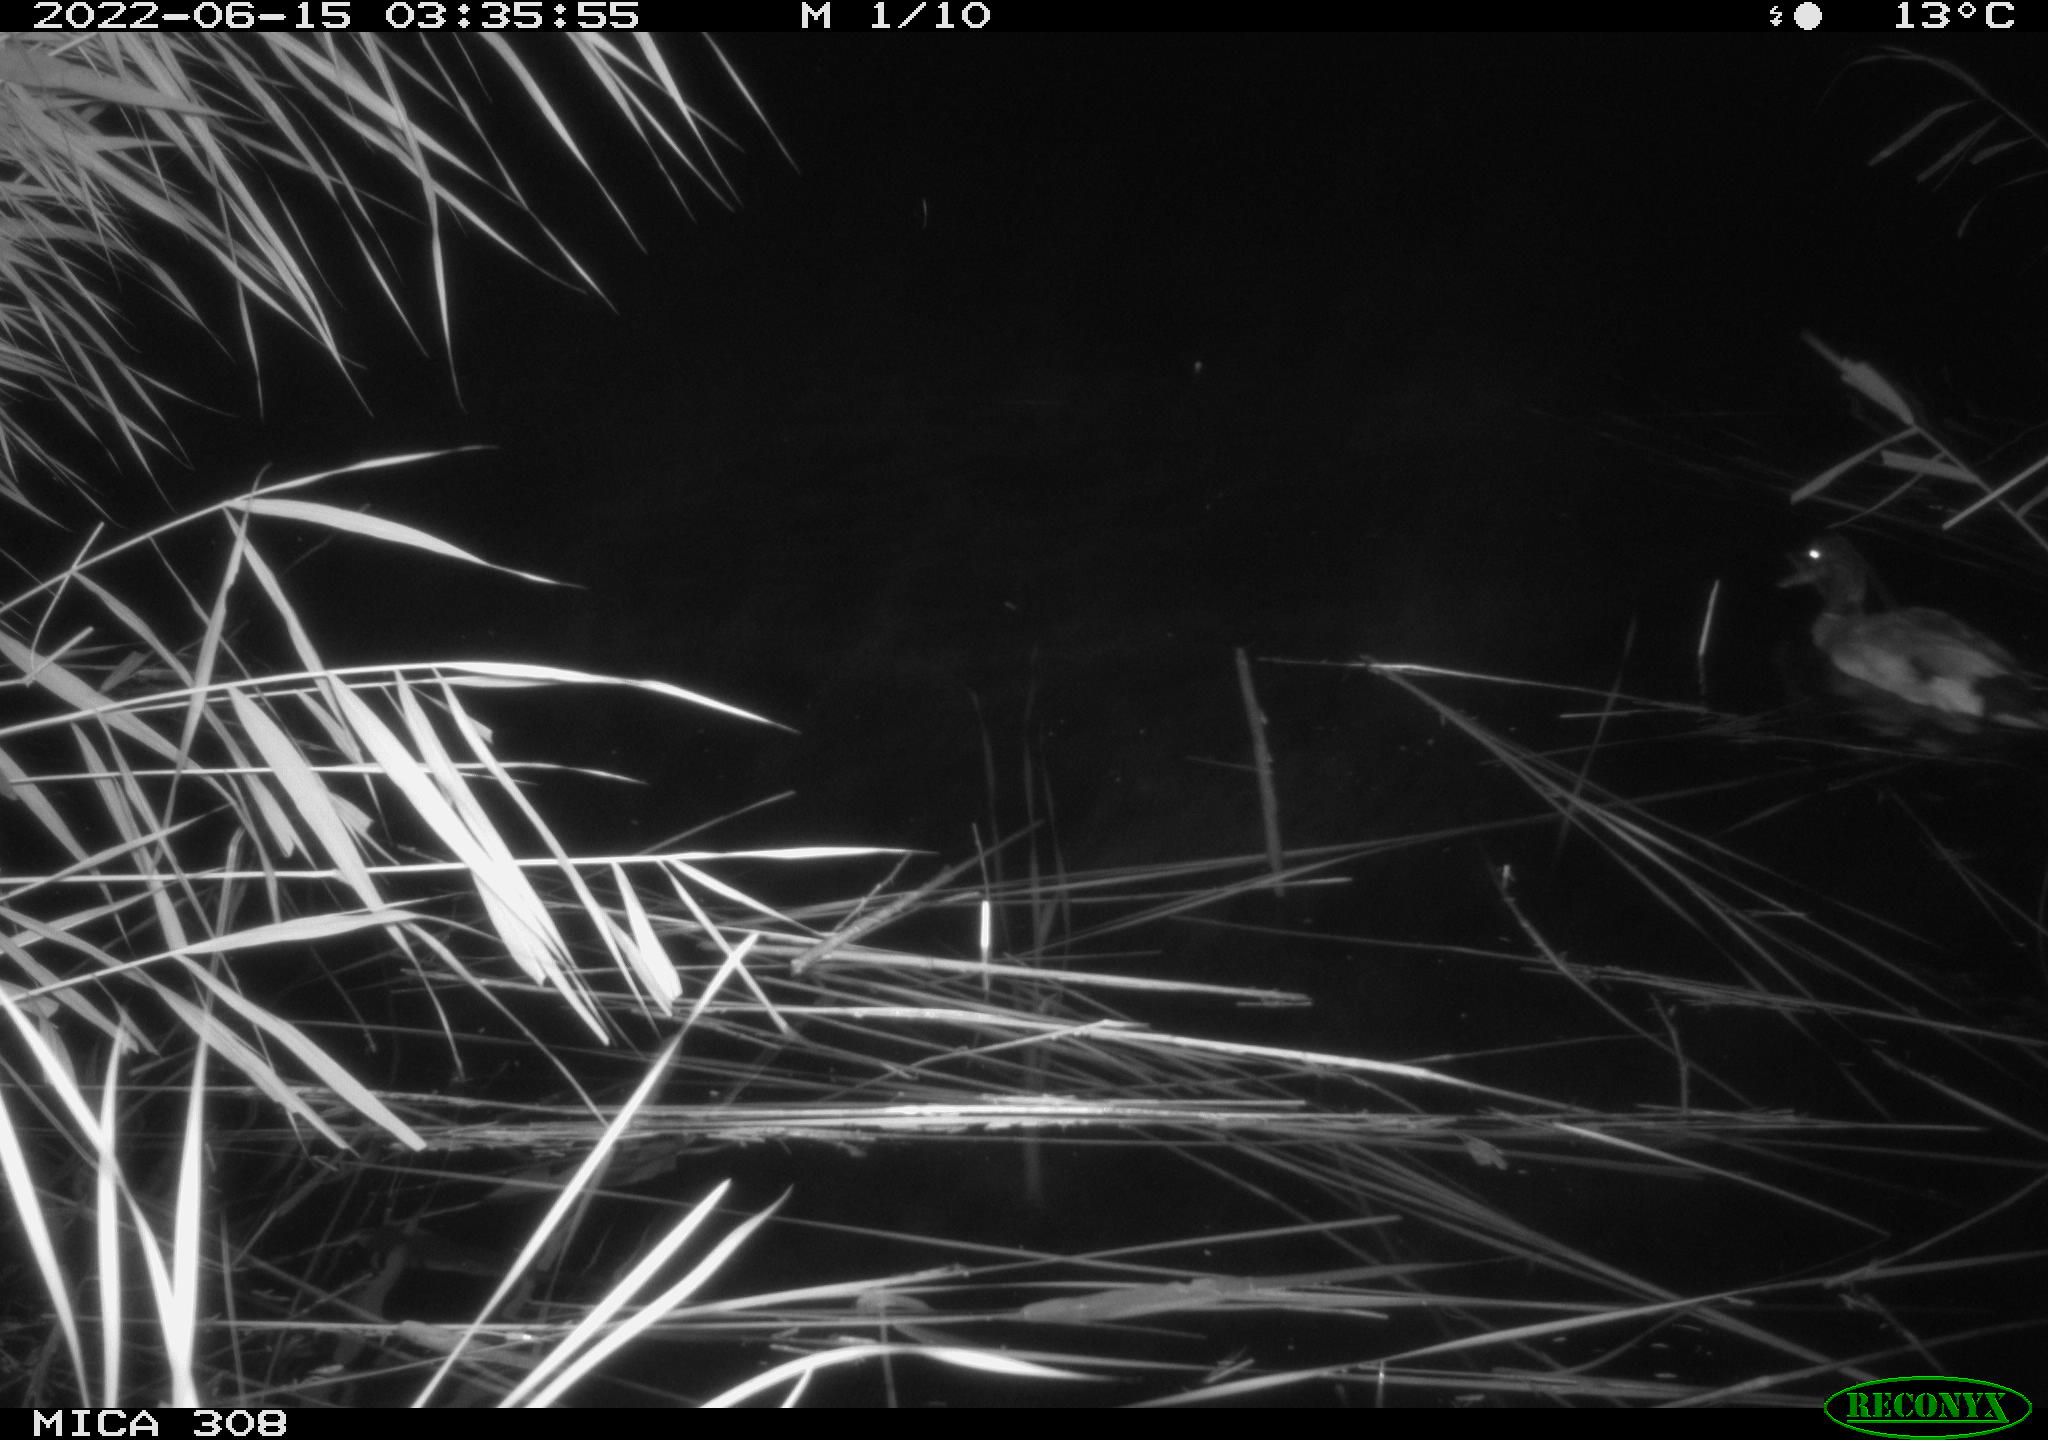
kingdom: Animalia
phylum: Chordata
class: Aves
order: Anseriformes
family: Anatidae
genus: Mareca
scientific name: Mareca strepera
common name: Gadwall
